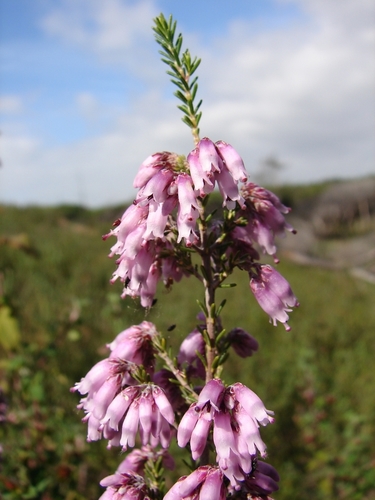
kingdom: Plantae
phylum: Tracheophyta
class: Magnoliopsida
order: Ericales
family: Ericaceae
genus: Erica
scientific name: Erica australis
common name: Spanish heath
